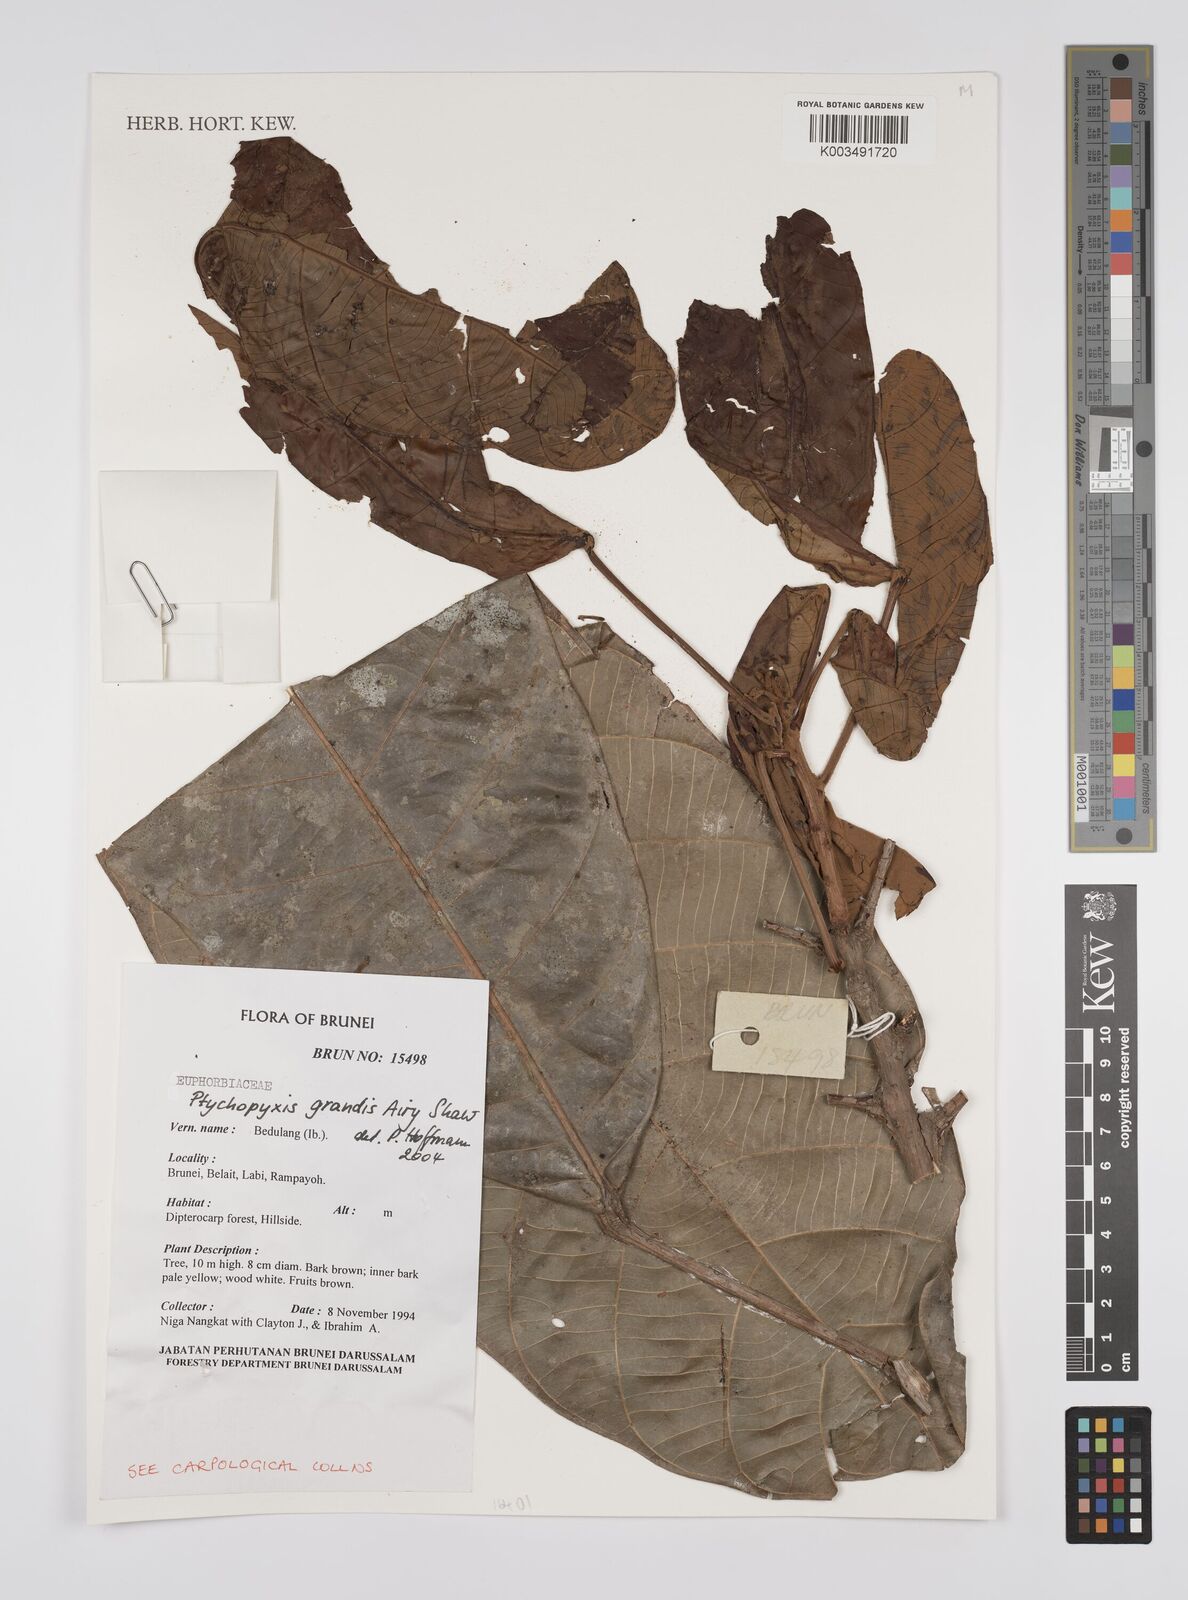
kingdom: Plantae
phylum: Tracheophyta
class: Magnoliopsida
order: Malpighiales
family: Euphorbiaceae
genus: Ptychopyxis
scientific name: Ptychopyxis grandis
